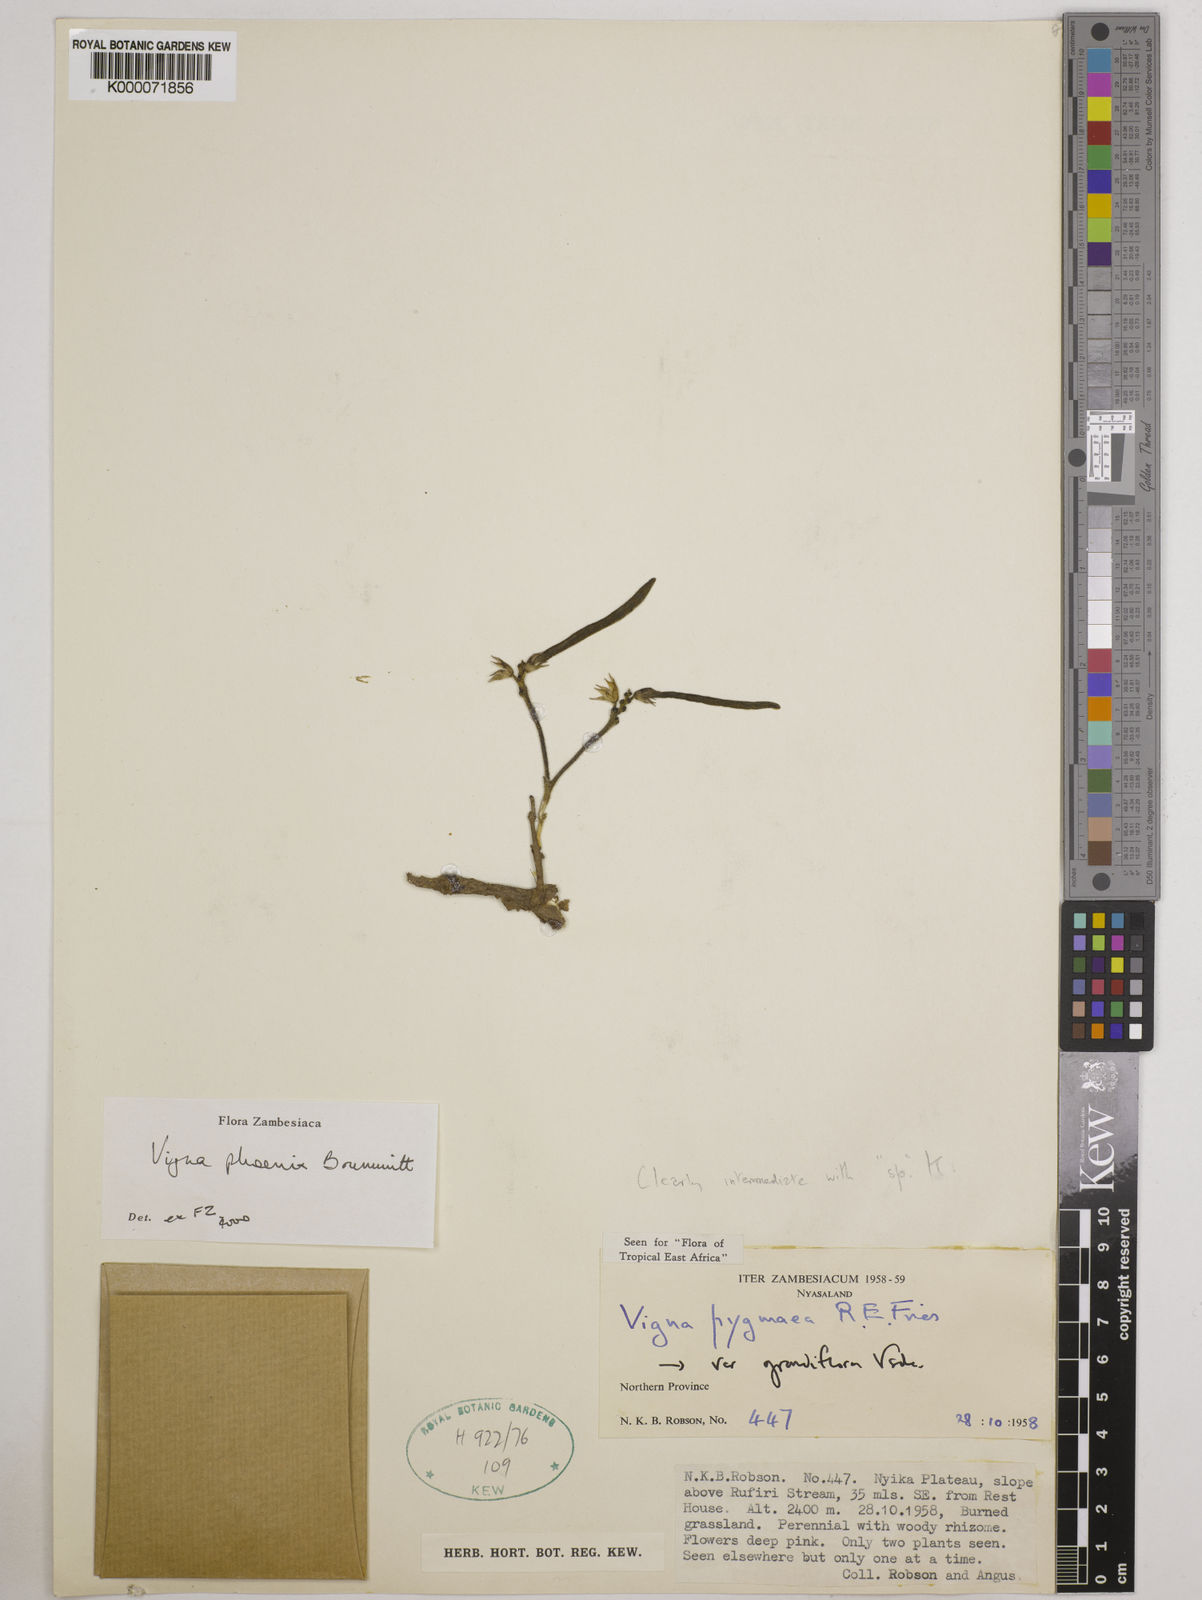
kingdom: Plantae
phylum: Tracheophyta
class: Magnoliopsida
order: Fabales
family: Fabaceae
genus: Vigna
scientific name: Vigna phoenix
